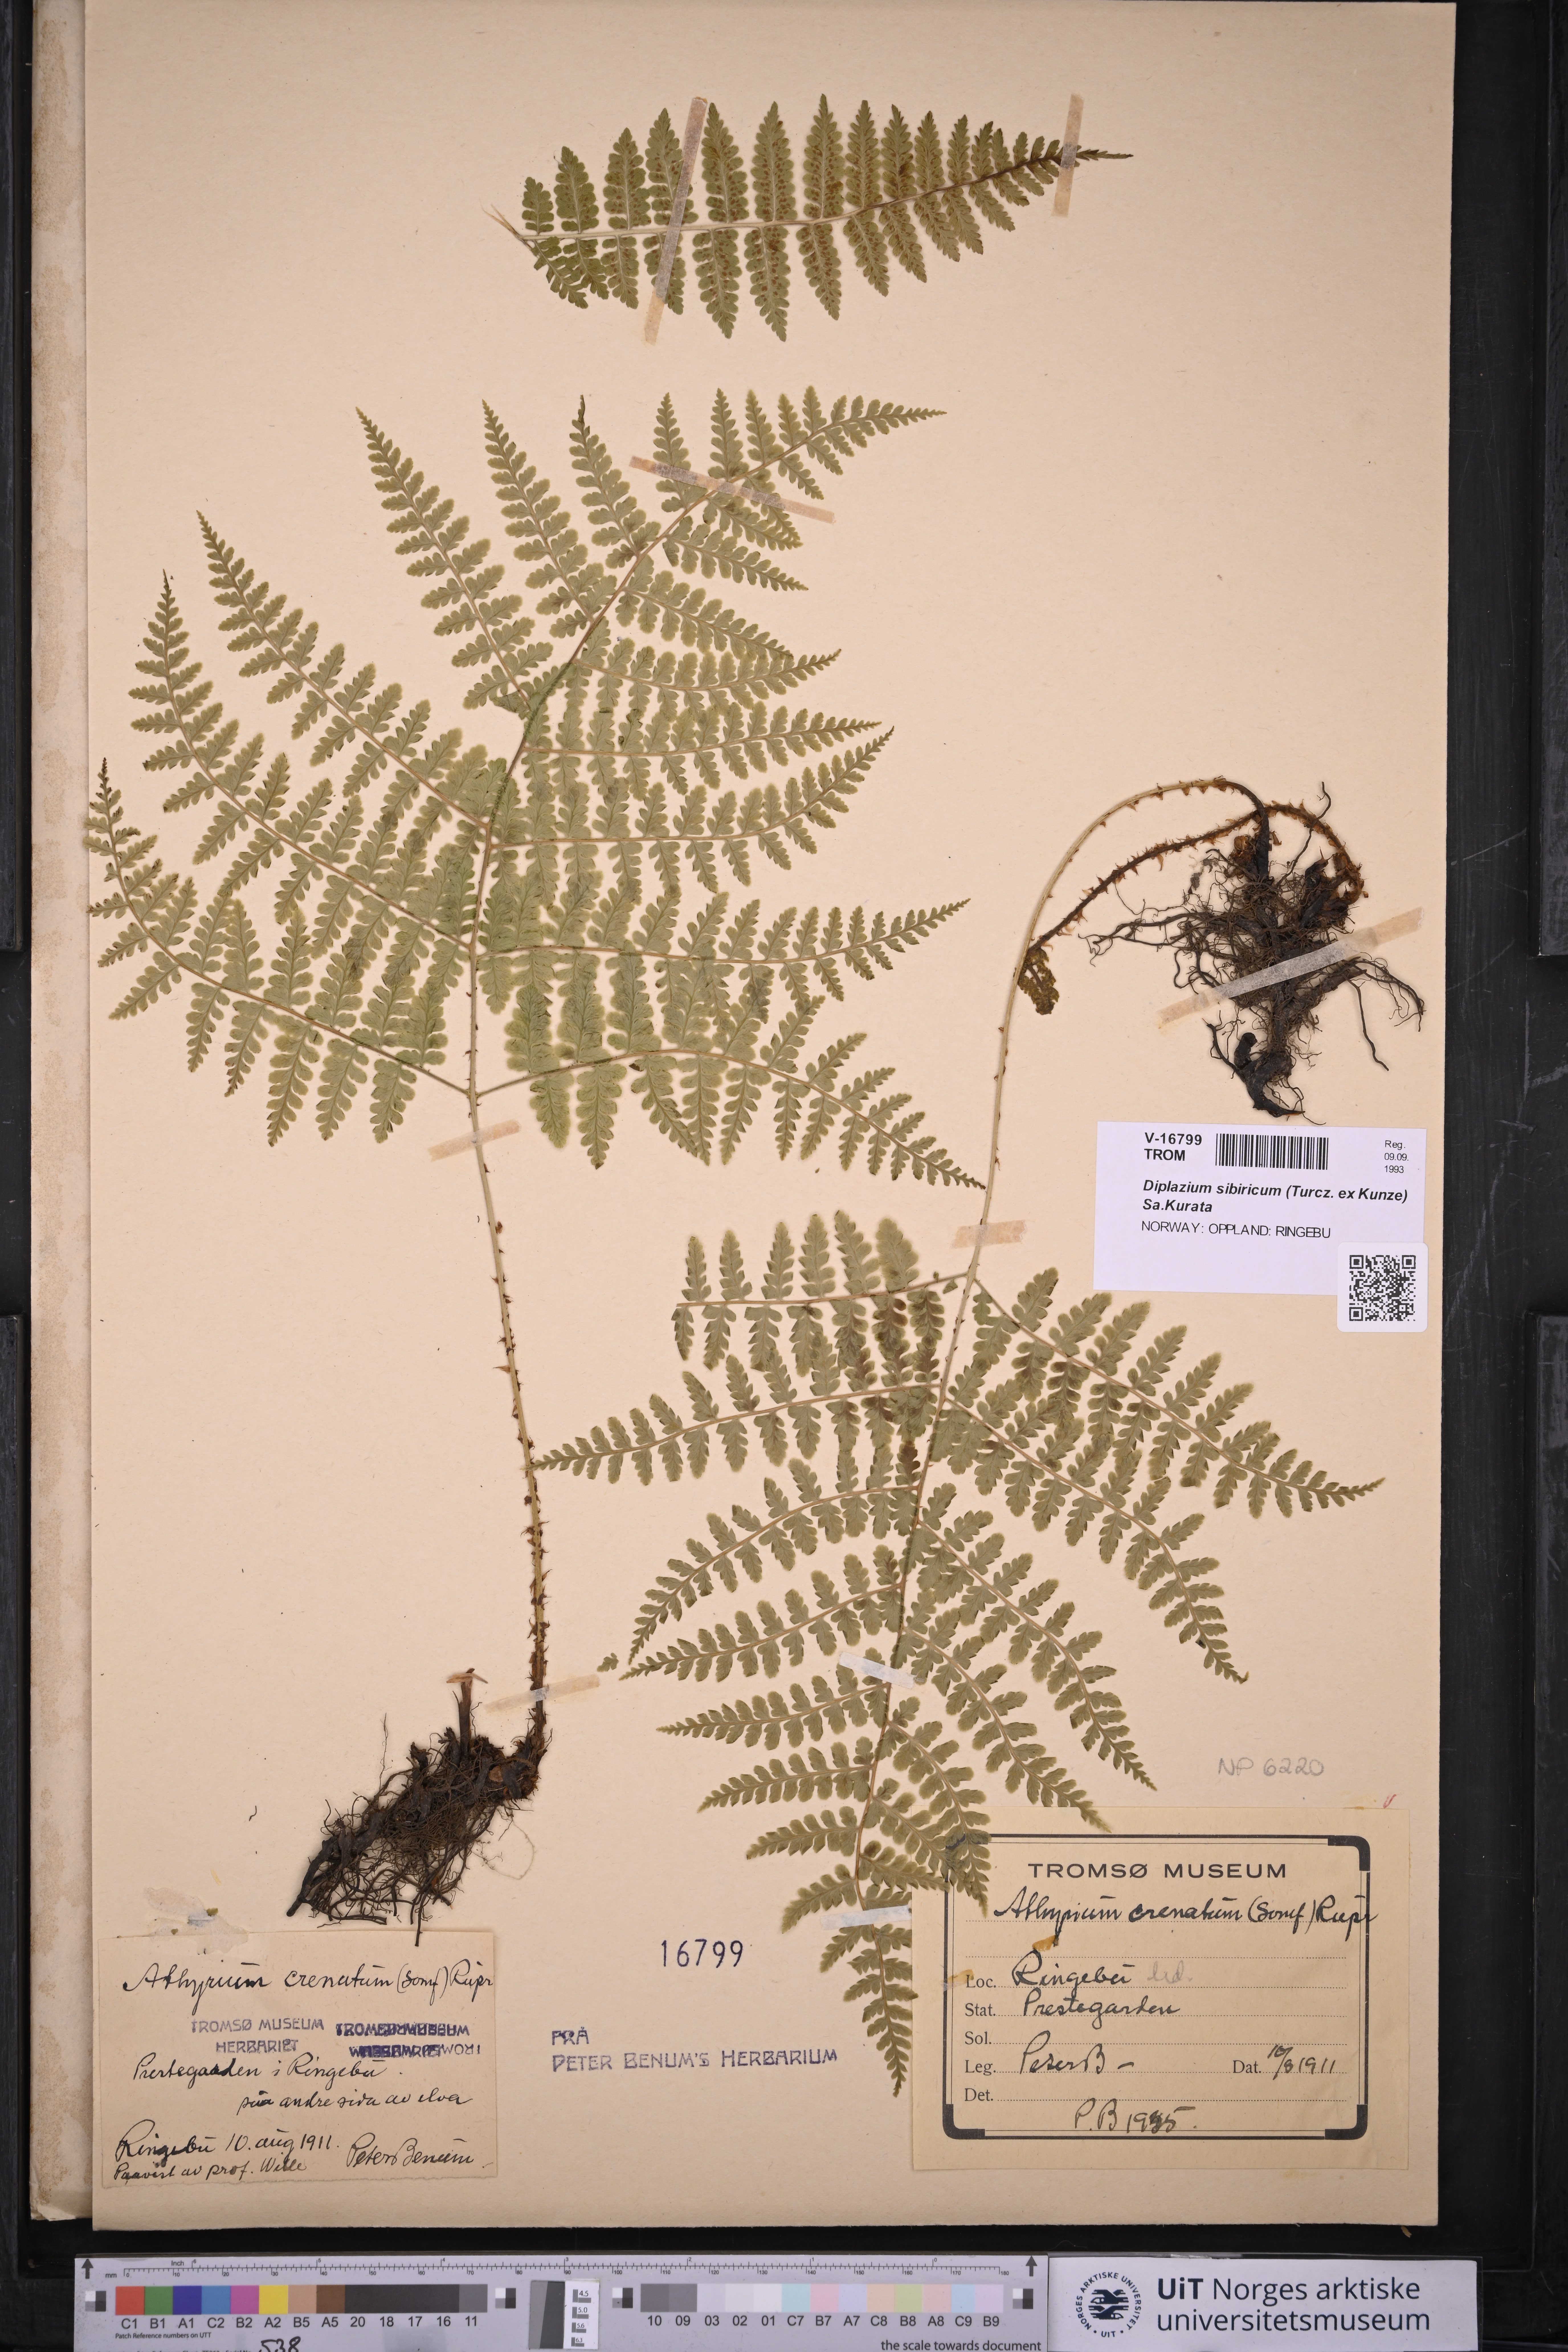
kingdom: Plantae
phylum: Tracheophyta
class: Polypodiopsida
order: Polypodiales
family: Athyriaceae
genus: Diplazium
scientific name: Diplazium sibiricum
